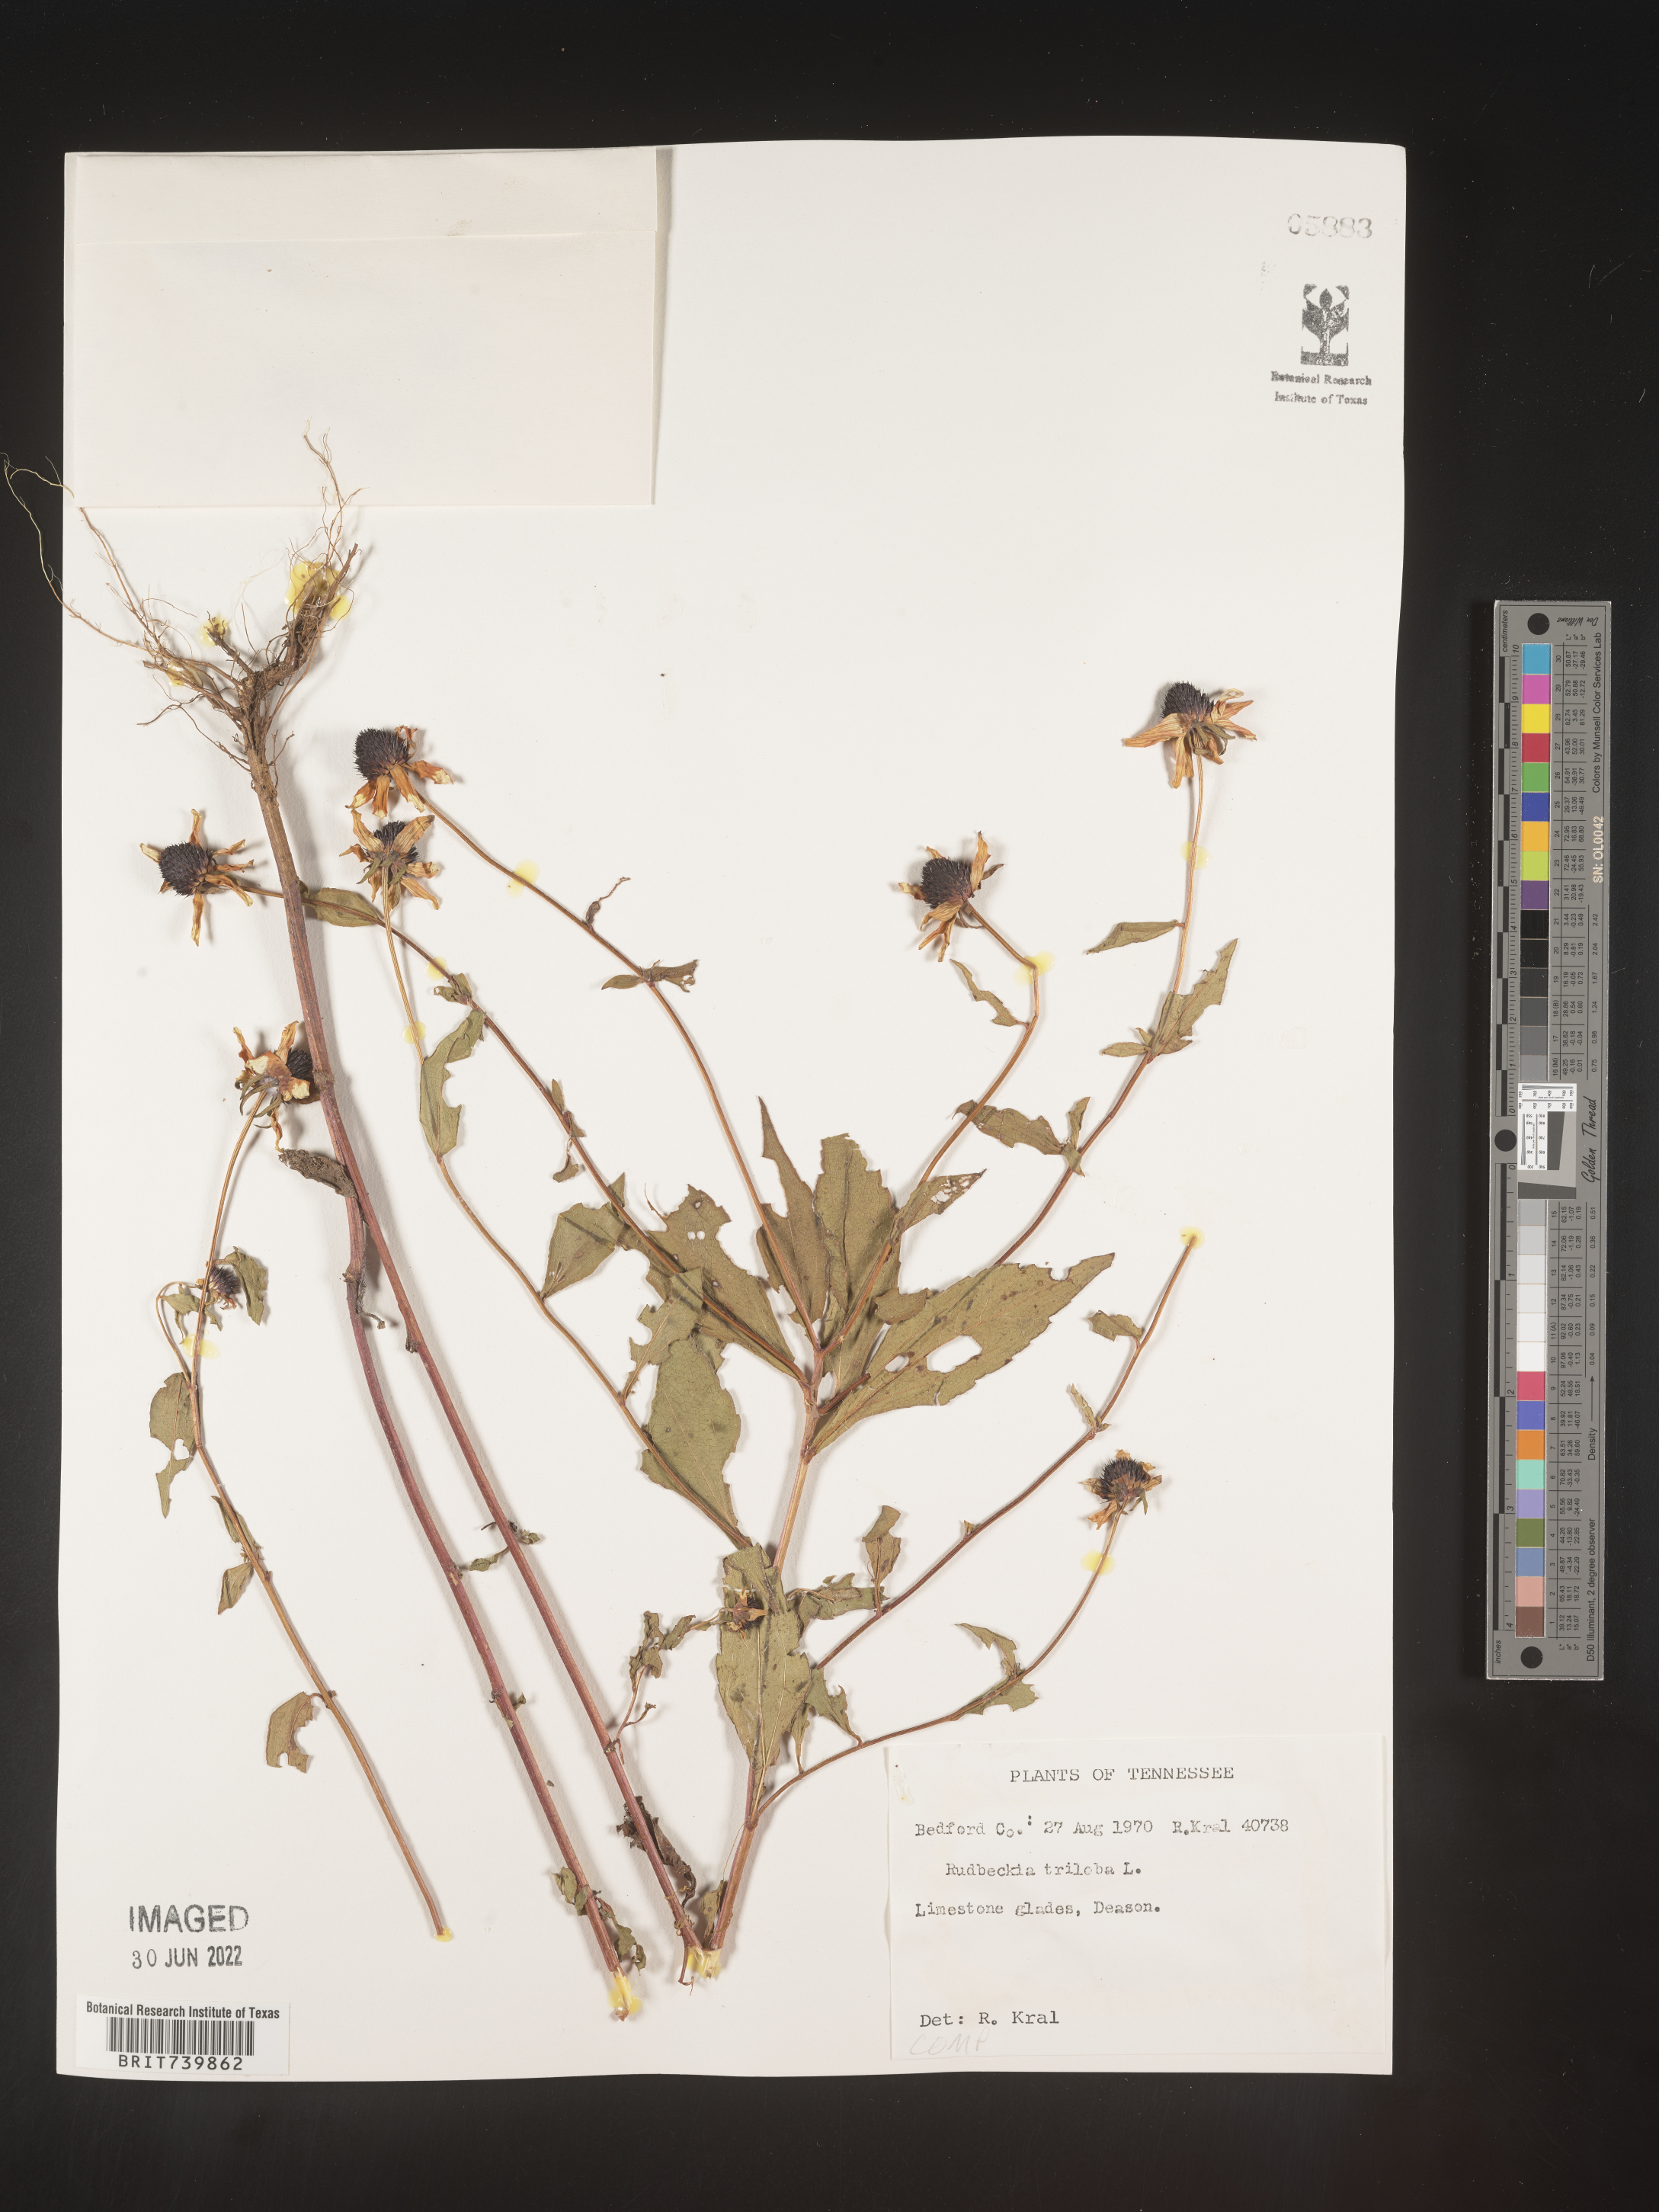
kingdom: Plantae
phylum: Tracheophyta
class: Magnoliopsida
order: Asterales
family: Asteraceae
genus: Rudbeckia
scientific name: Rudbeckia triloba
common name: Thin-leaved coneflower
